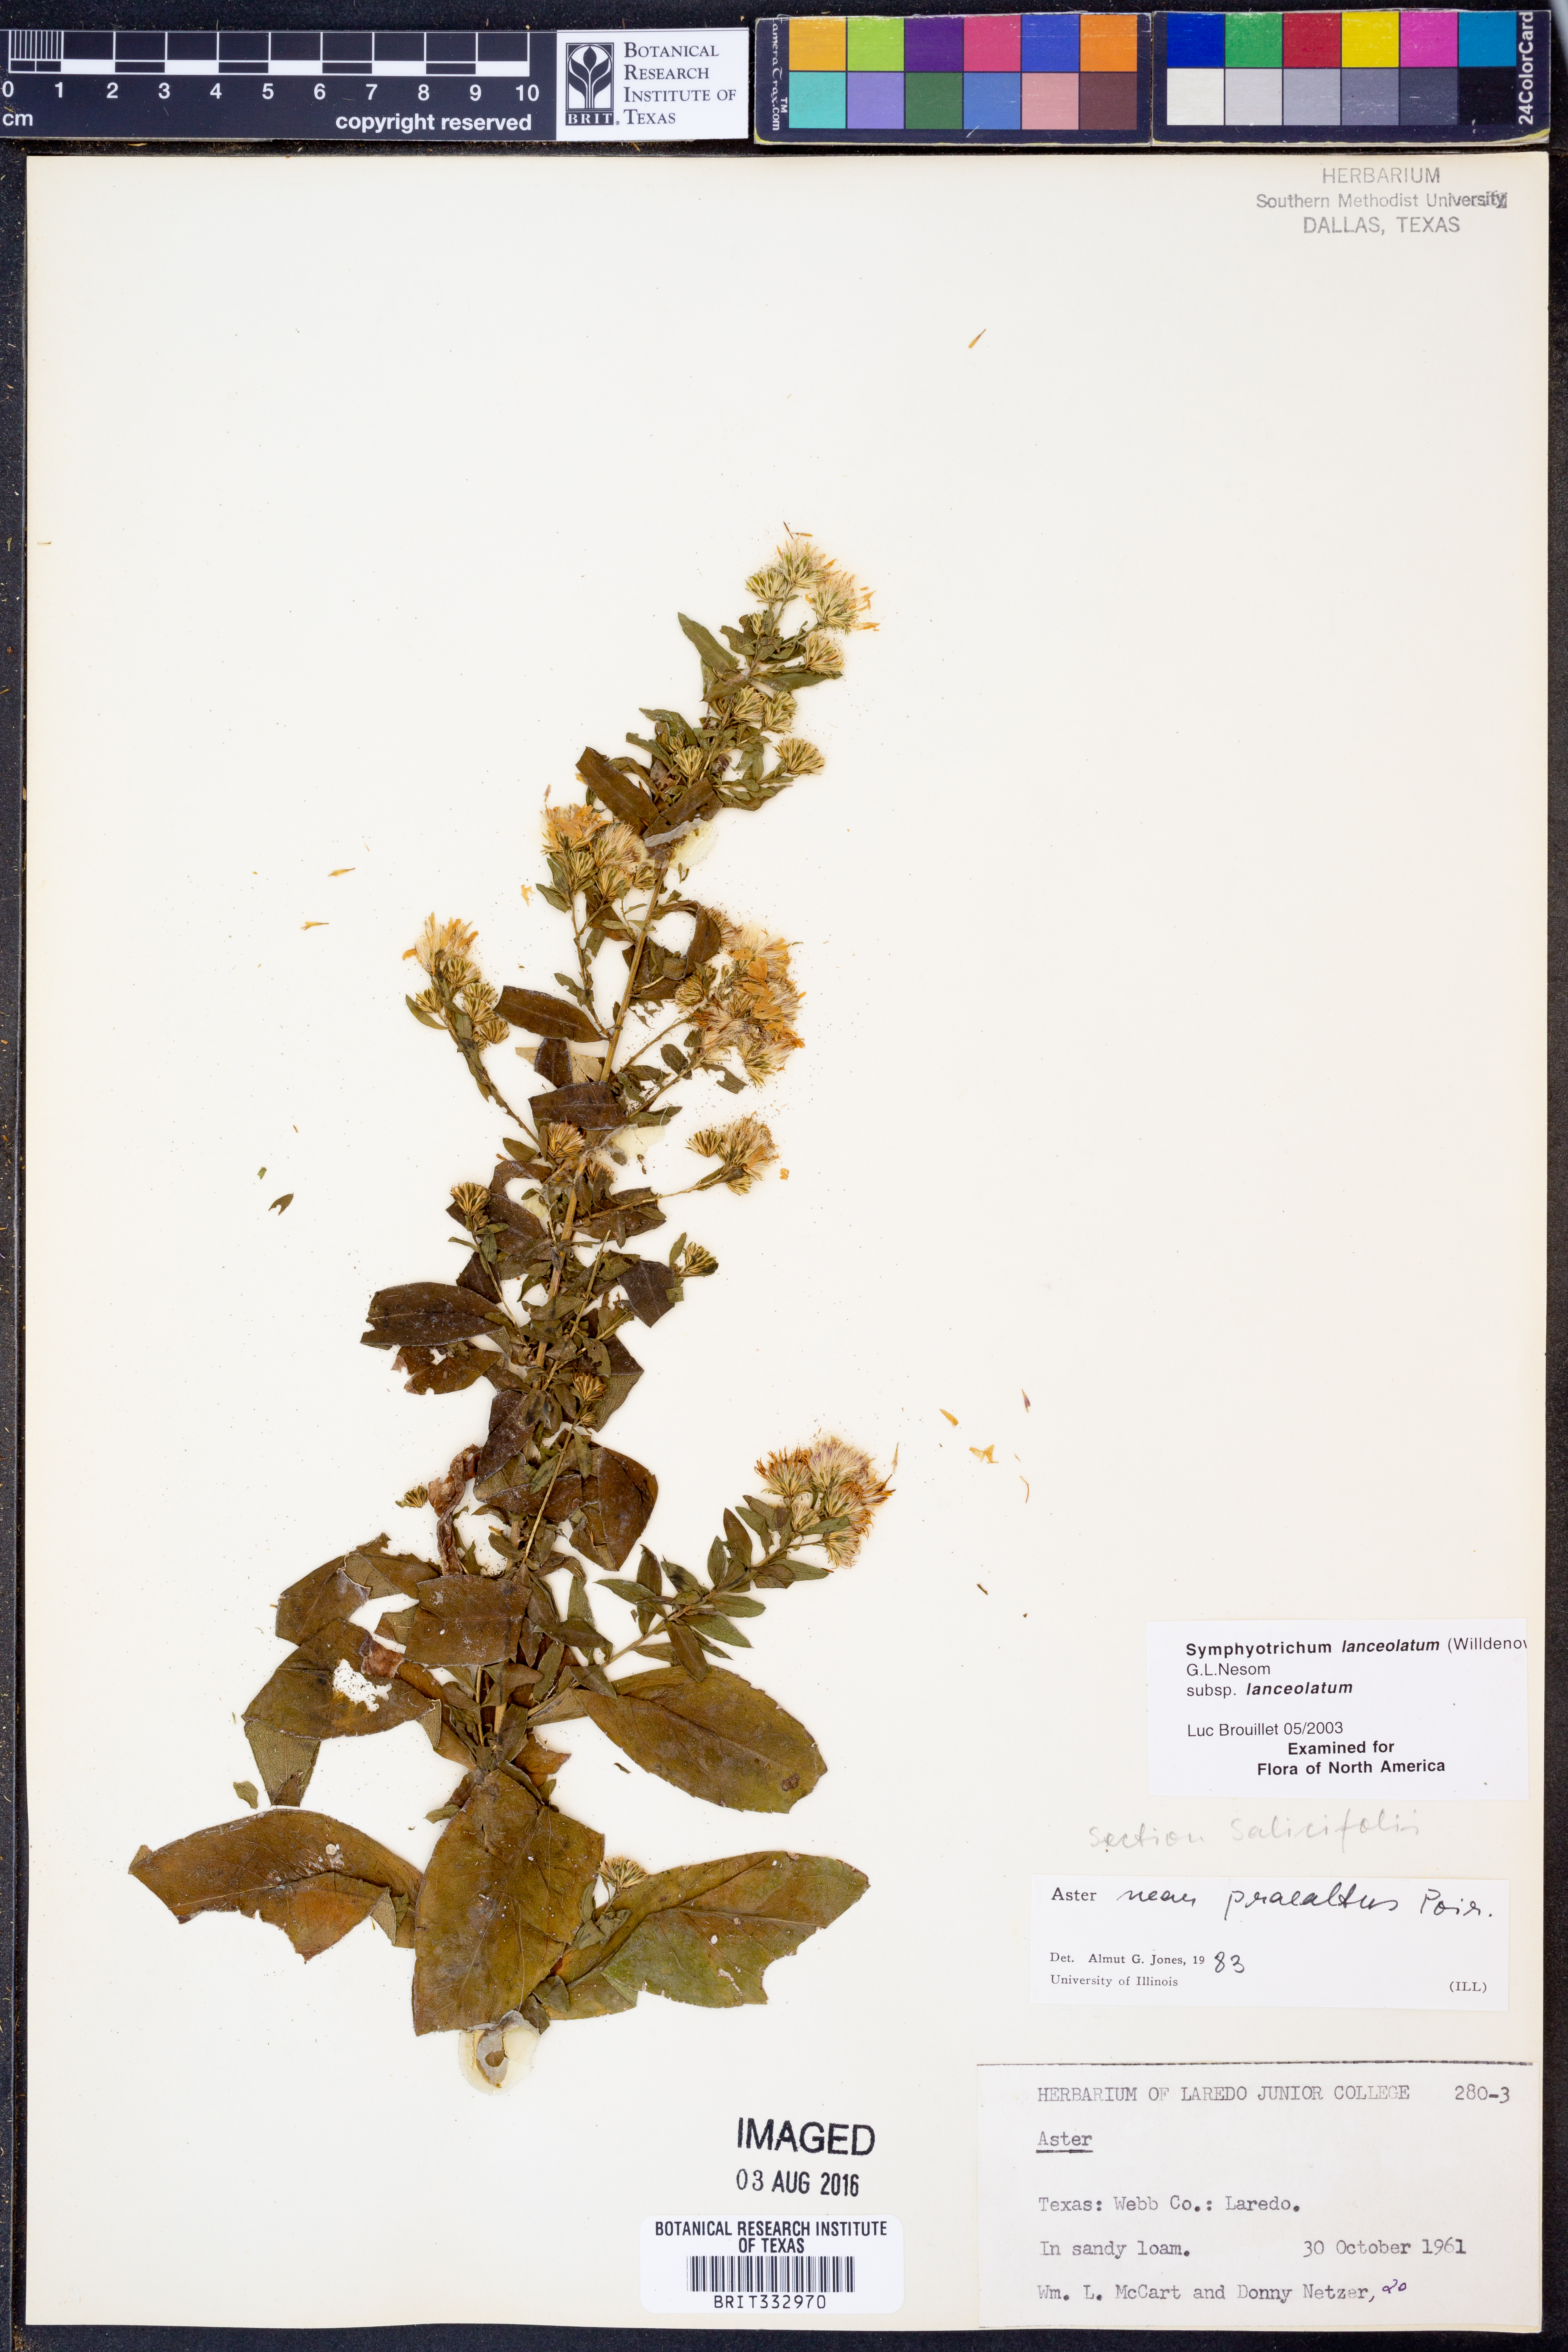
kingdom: Plantae
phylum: Tracheophyta
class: Magnoliopsida
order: Asterales
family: Asteraceae
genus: Symphyotrichum
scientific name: Symphyotrichum lanceolatum
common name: Panicled aster
